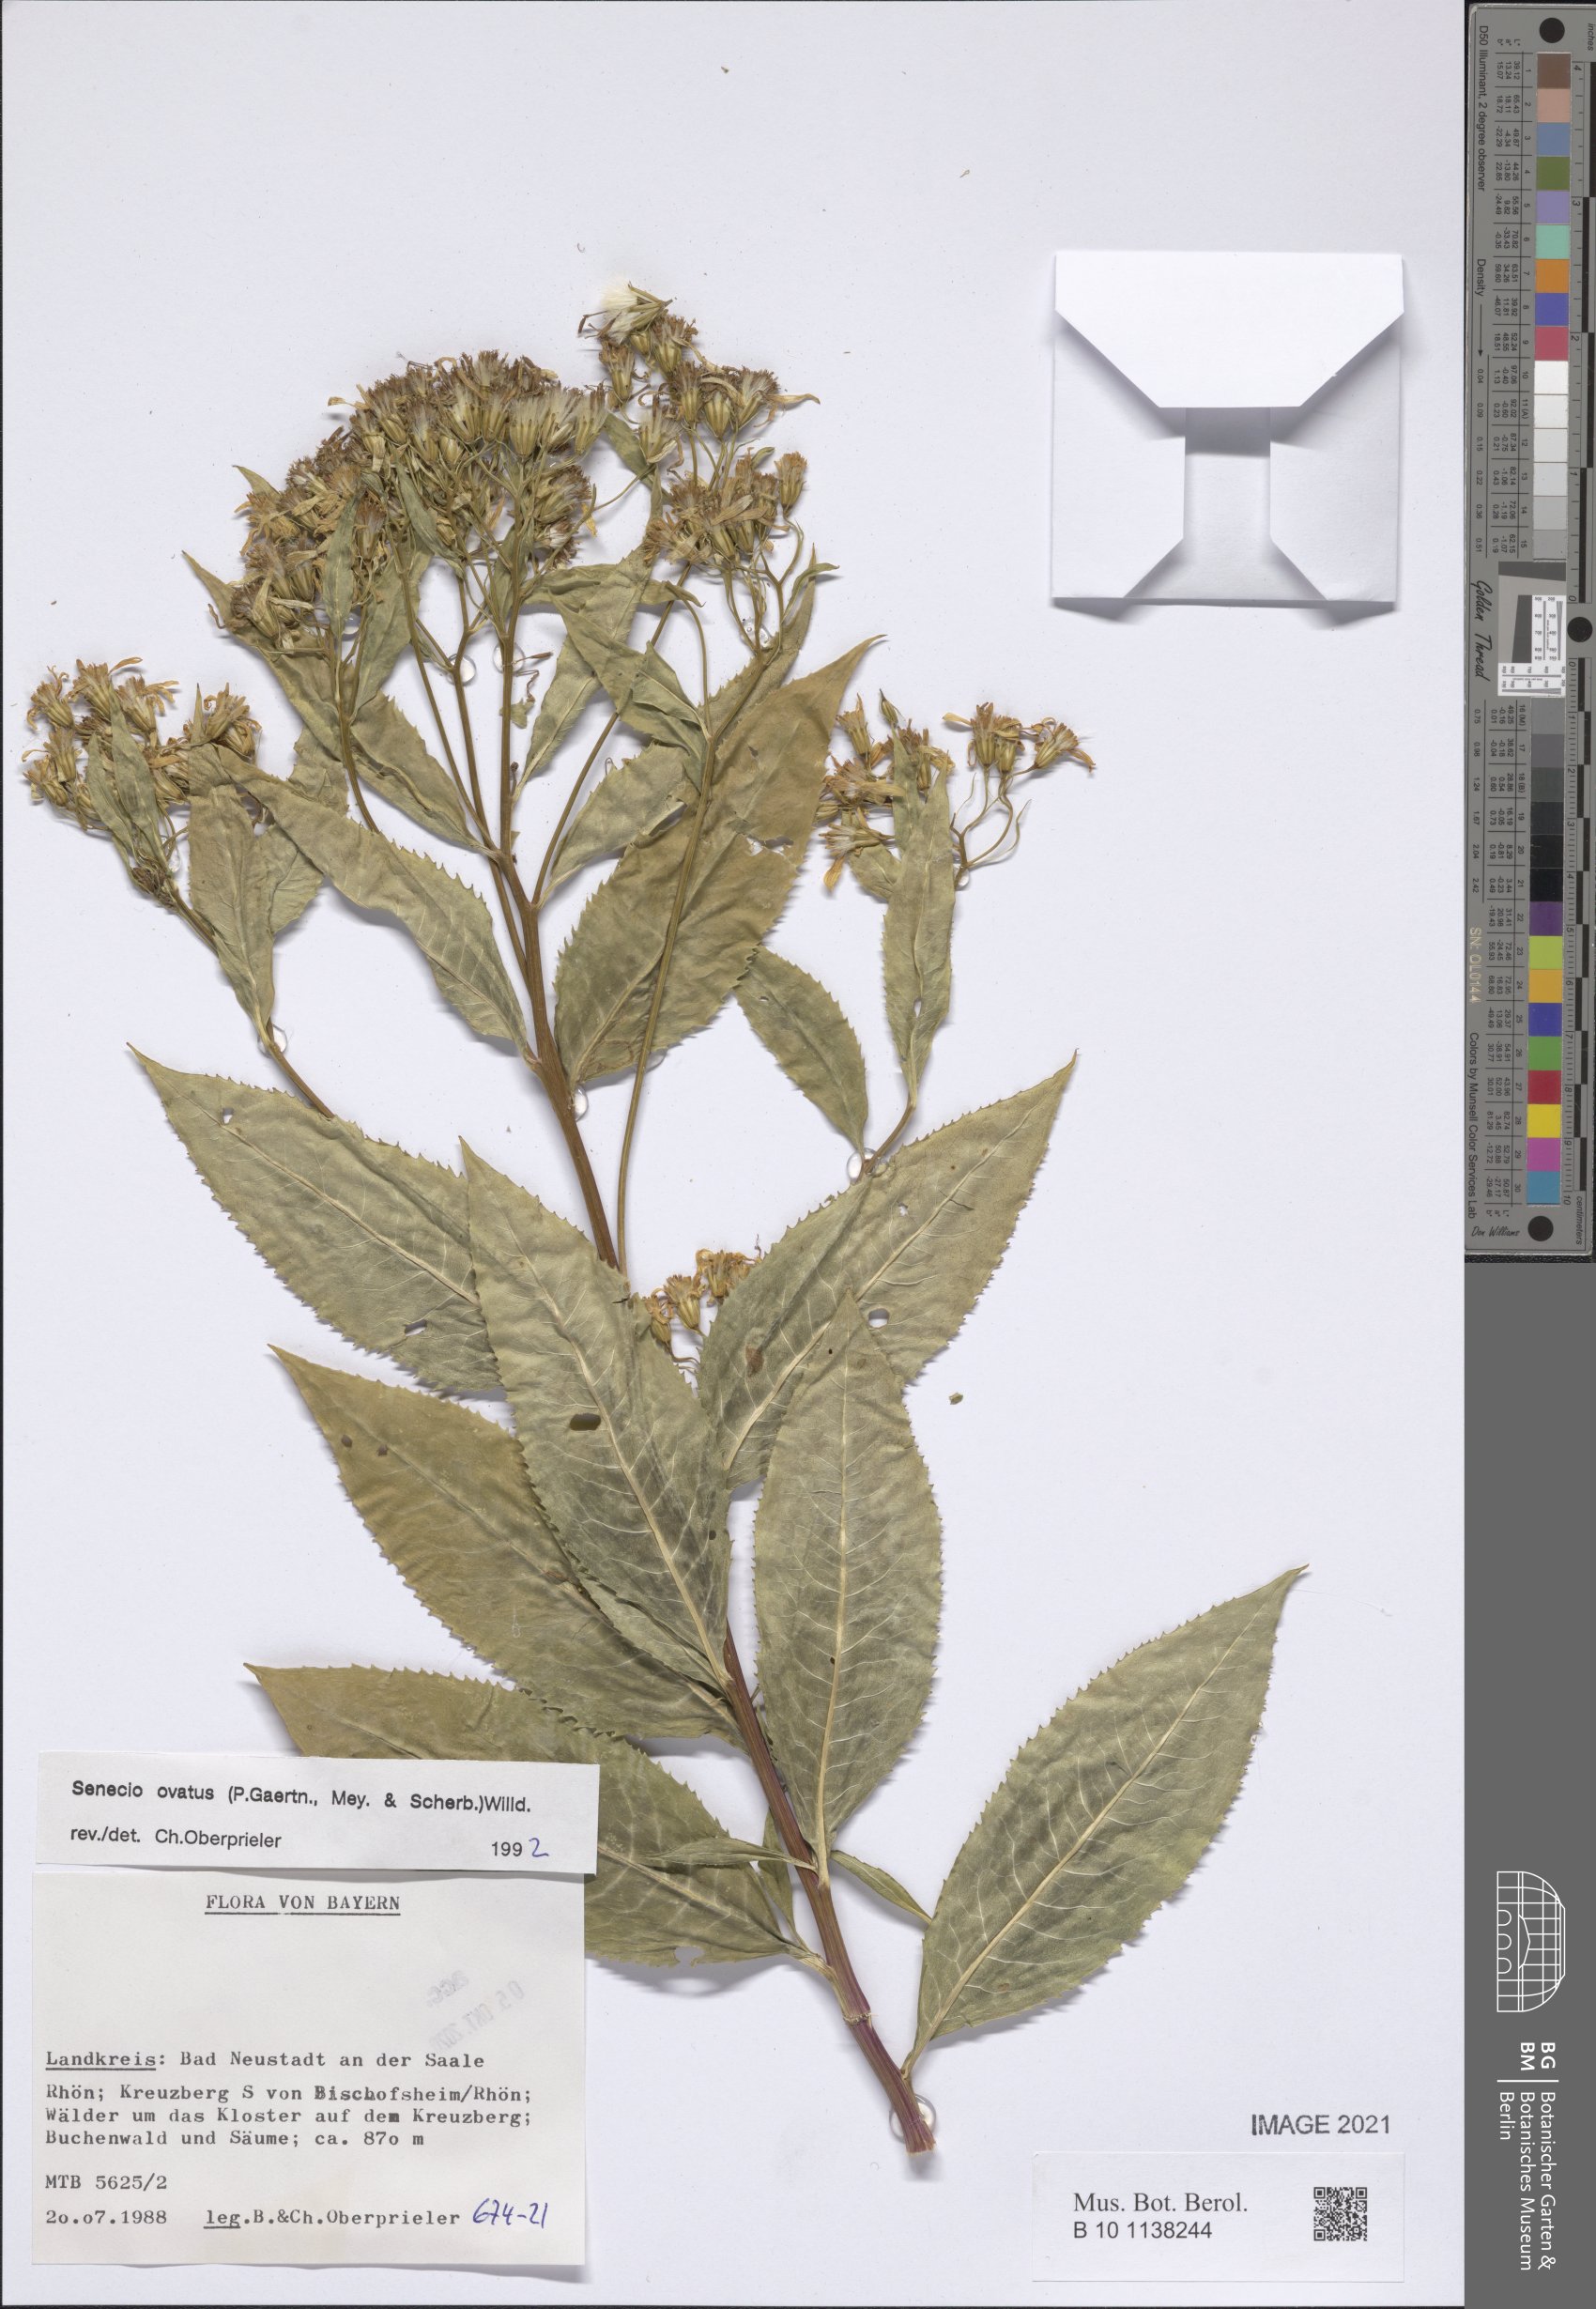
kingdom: Plantae
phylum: Tracheophyta
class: Magnoliopsida
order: Asterales
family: Asteraceae
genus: Senecio
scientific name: Senecio ovatus
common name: Wood ragwort
